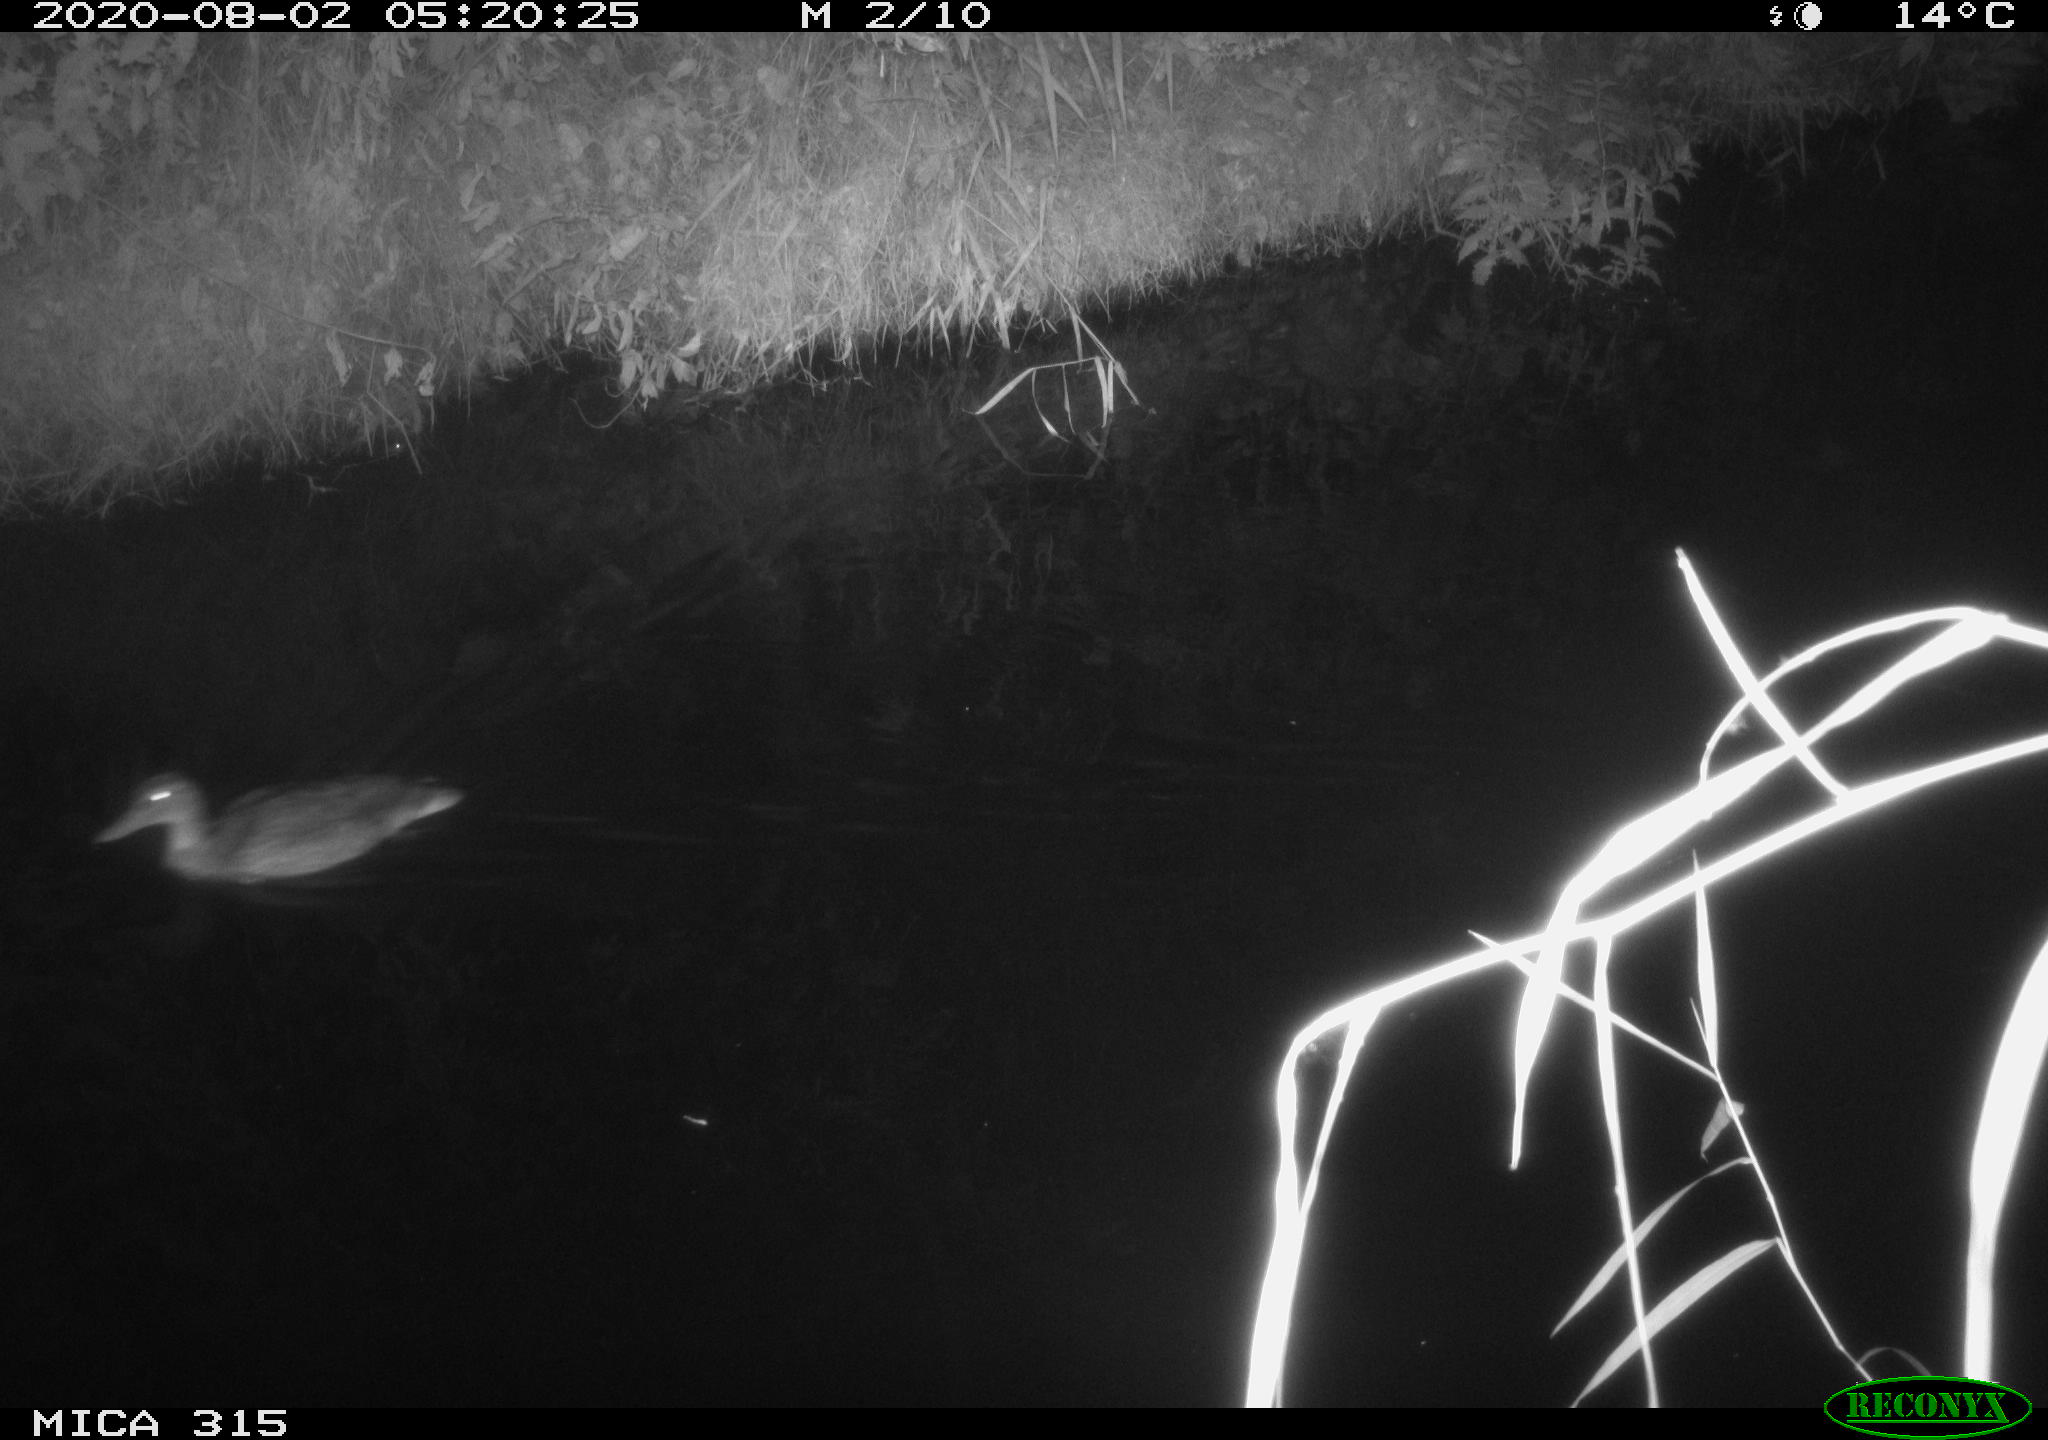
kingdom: Animalia
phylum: Chordata
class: Aves
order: Anseriformes
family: Anatidae
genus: Anas
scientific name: Anas platyrhynchos
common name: Mallard
